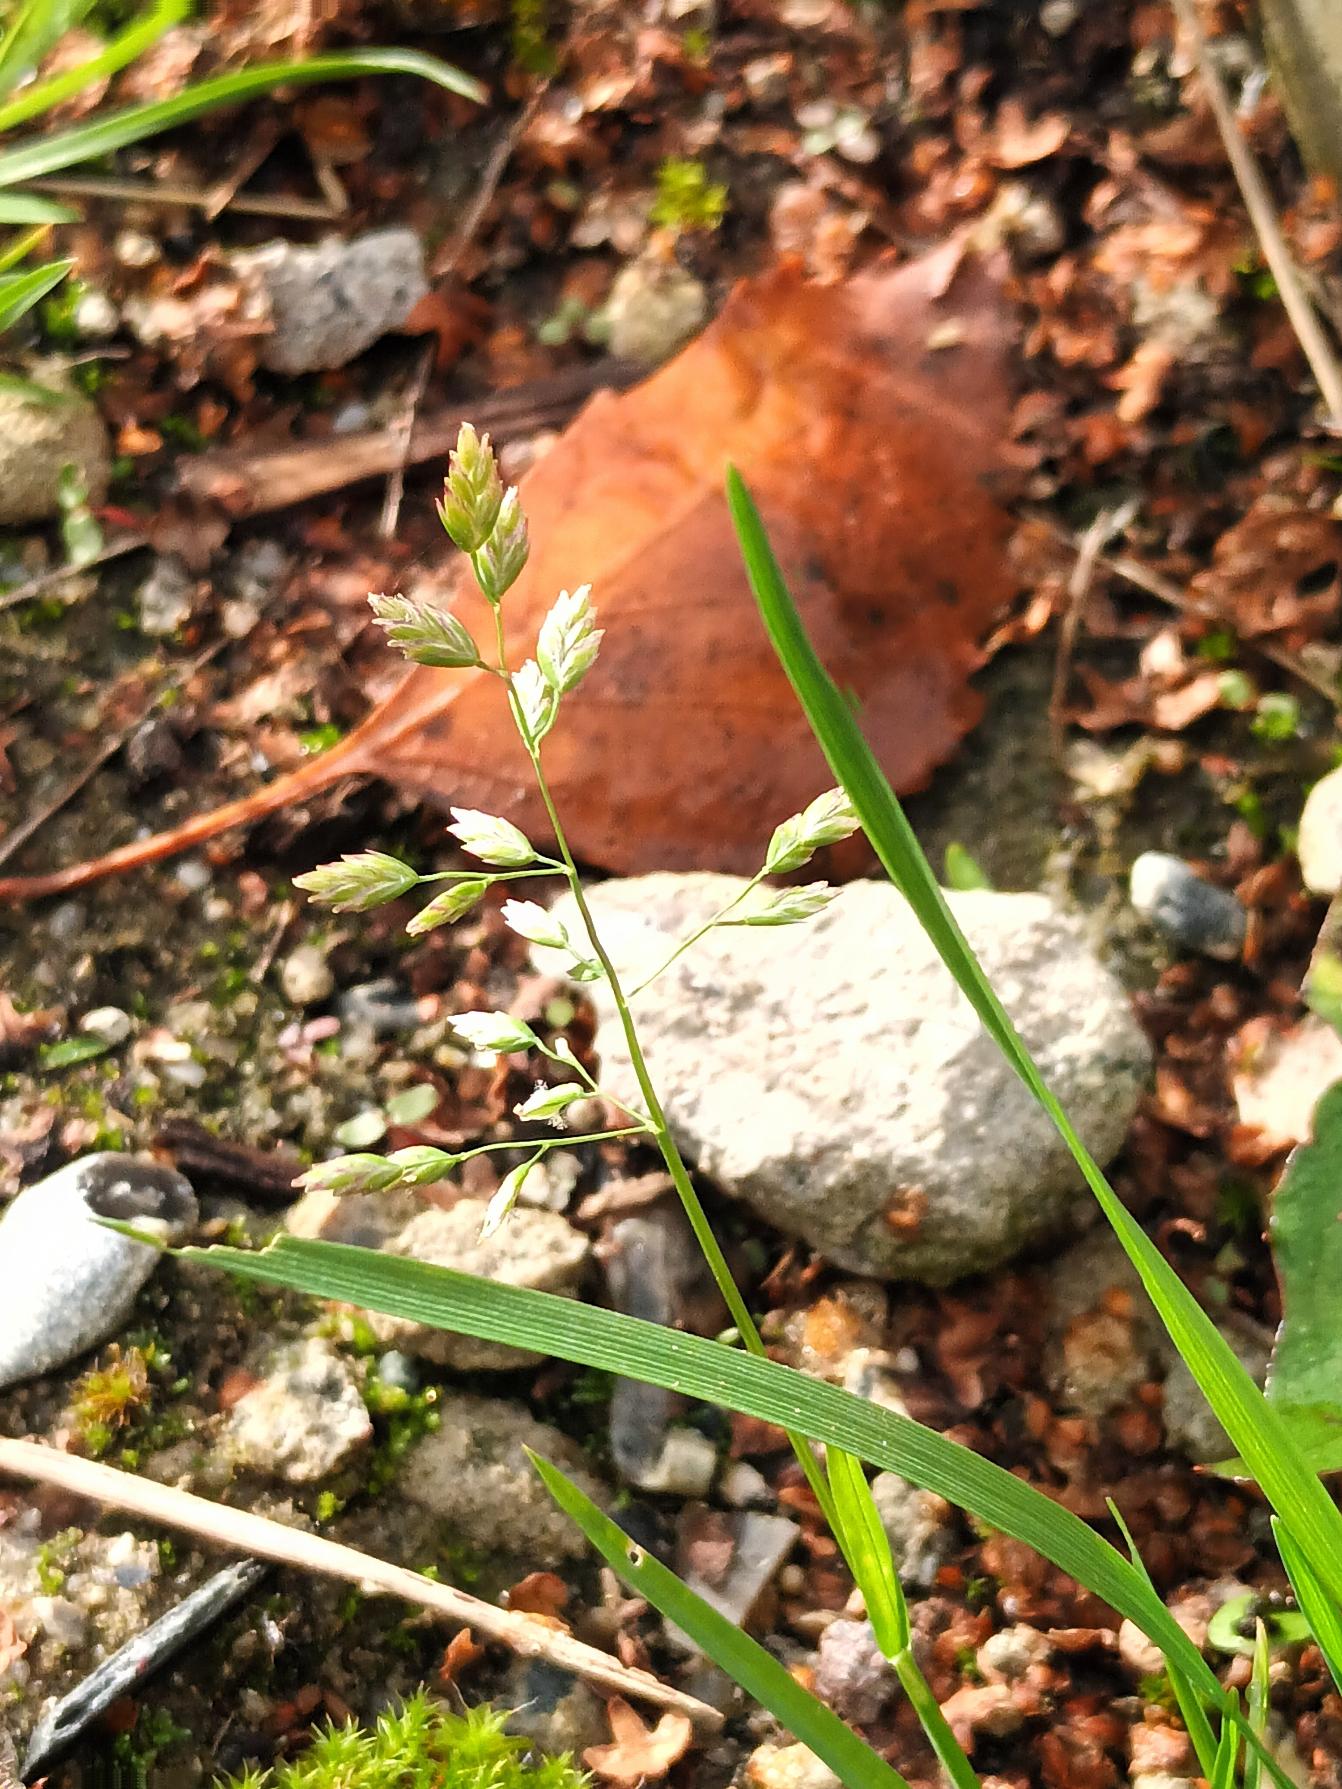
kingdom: Plantae
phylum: Tracheophyta
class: Liliopsida
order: Poales
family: Poaceae
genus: Poa
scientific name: Poa annua
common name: Enårig rapgræs
